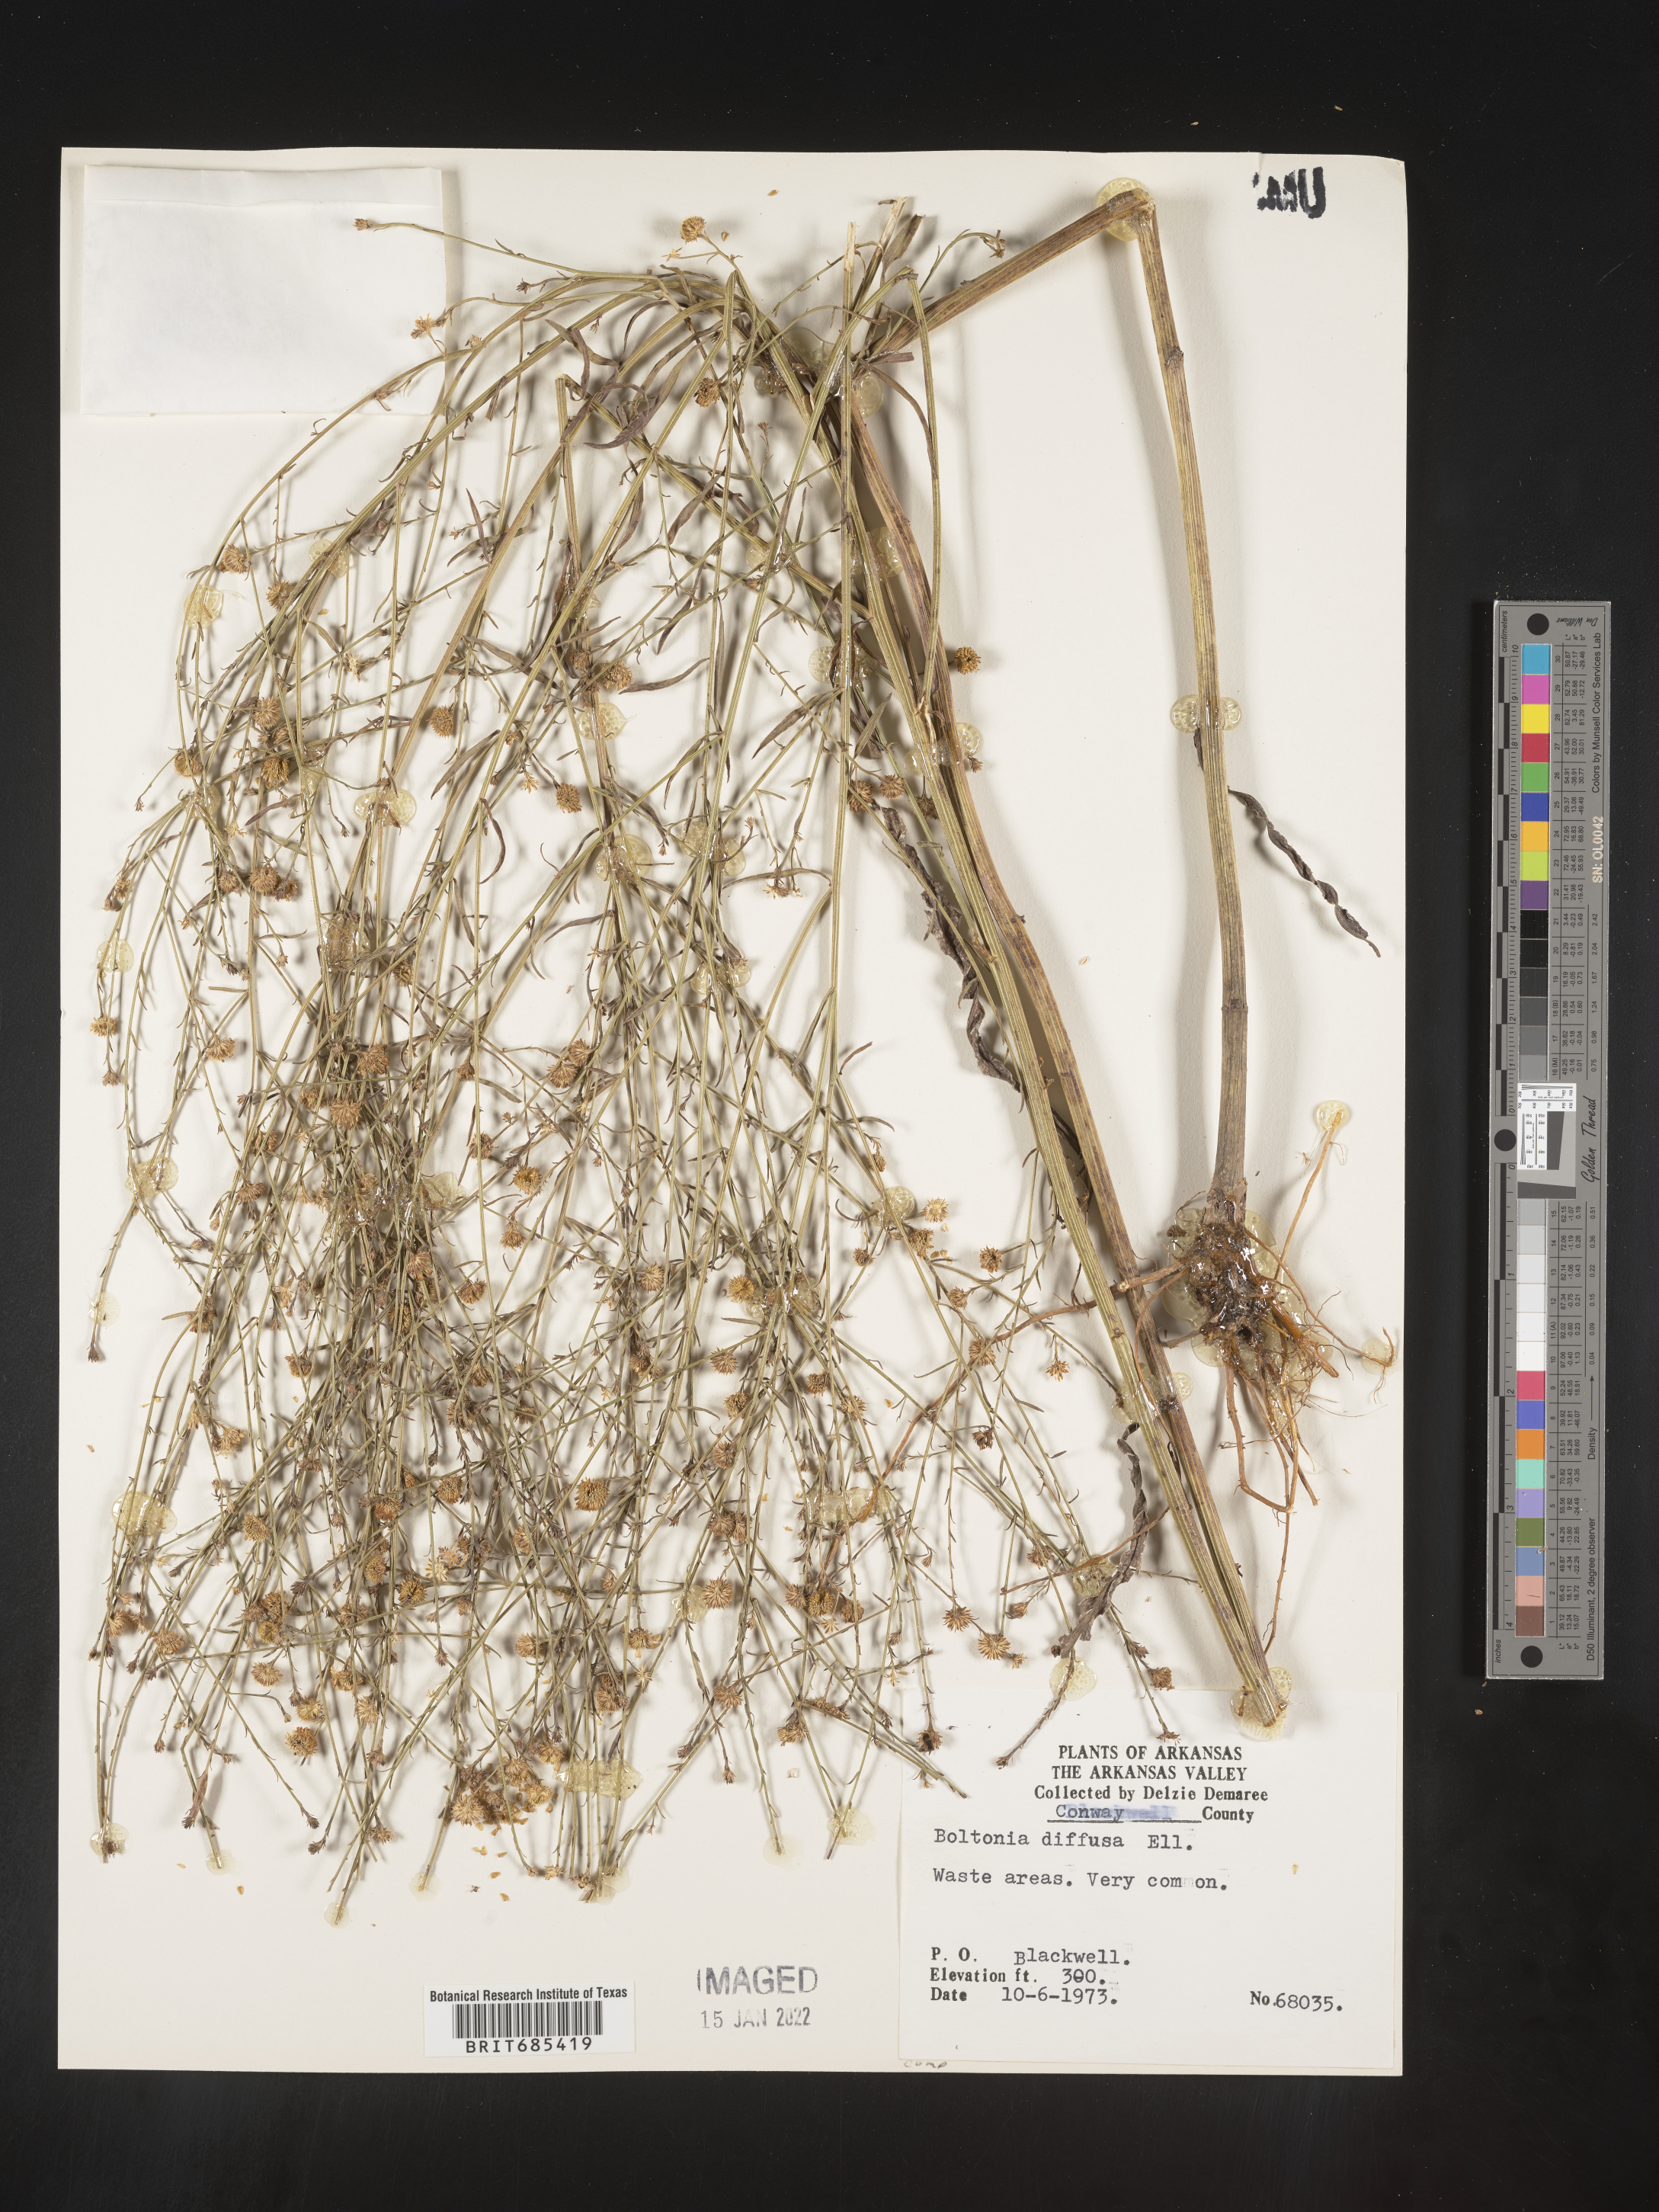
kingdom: Plantae
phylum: Tracheophyta
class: Magnoliopsida
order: Asterales
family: Asteraceae
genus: Boltonia
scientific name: Boltonia diffusa
